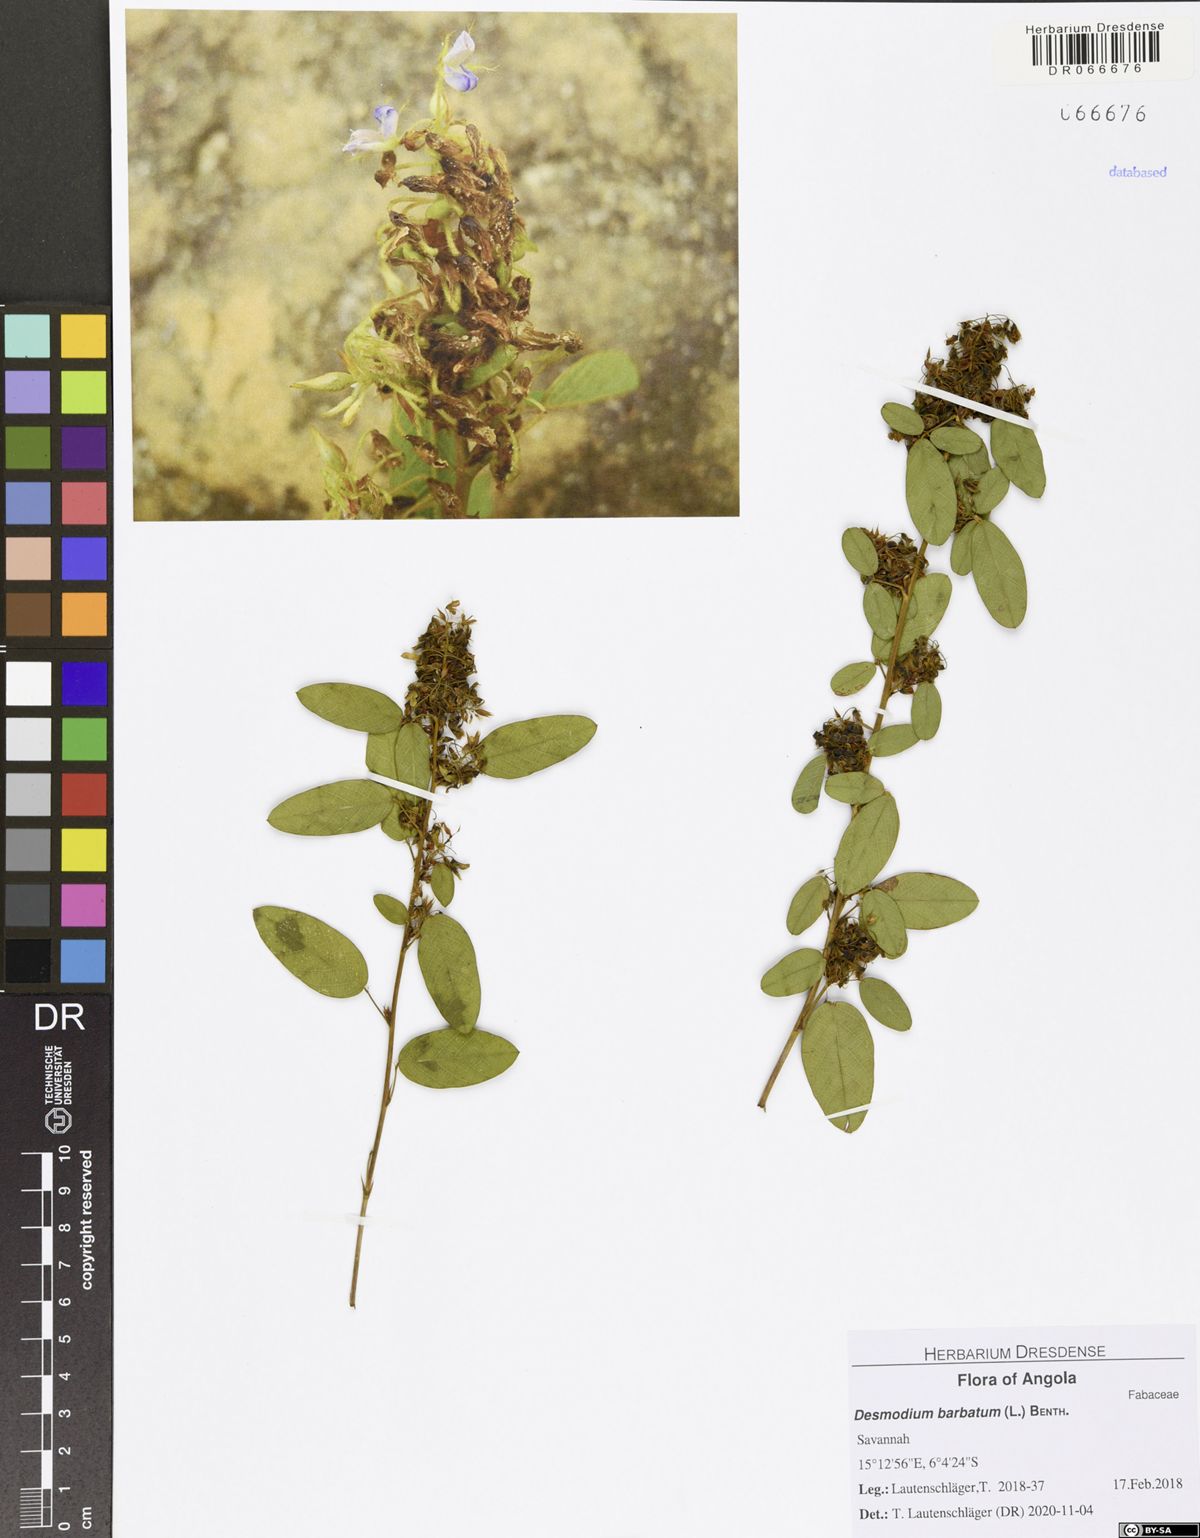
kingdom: Plantae
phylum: Tracheophyta
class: Magnoliopsida
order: Fabales
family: Fabaceae
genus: Grona
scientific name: Grona barbata
